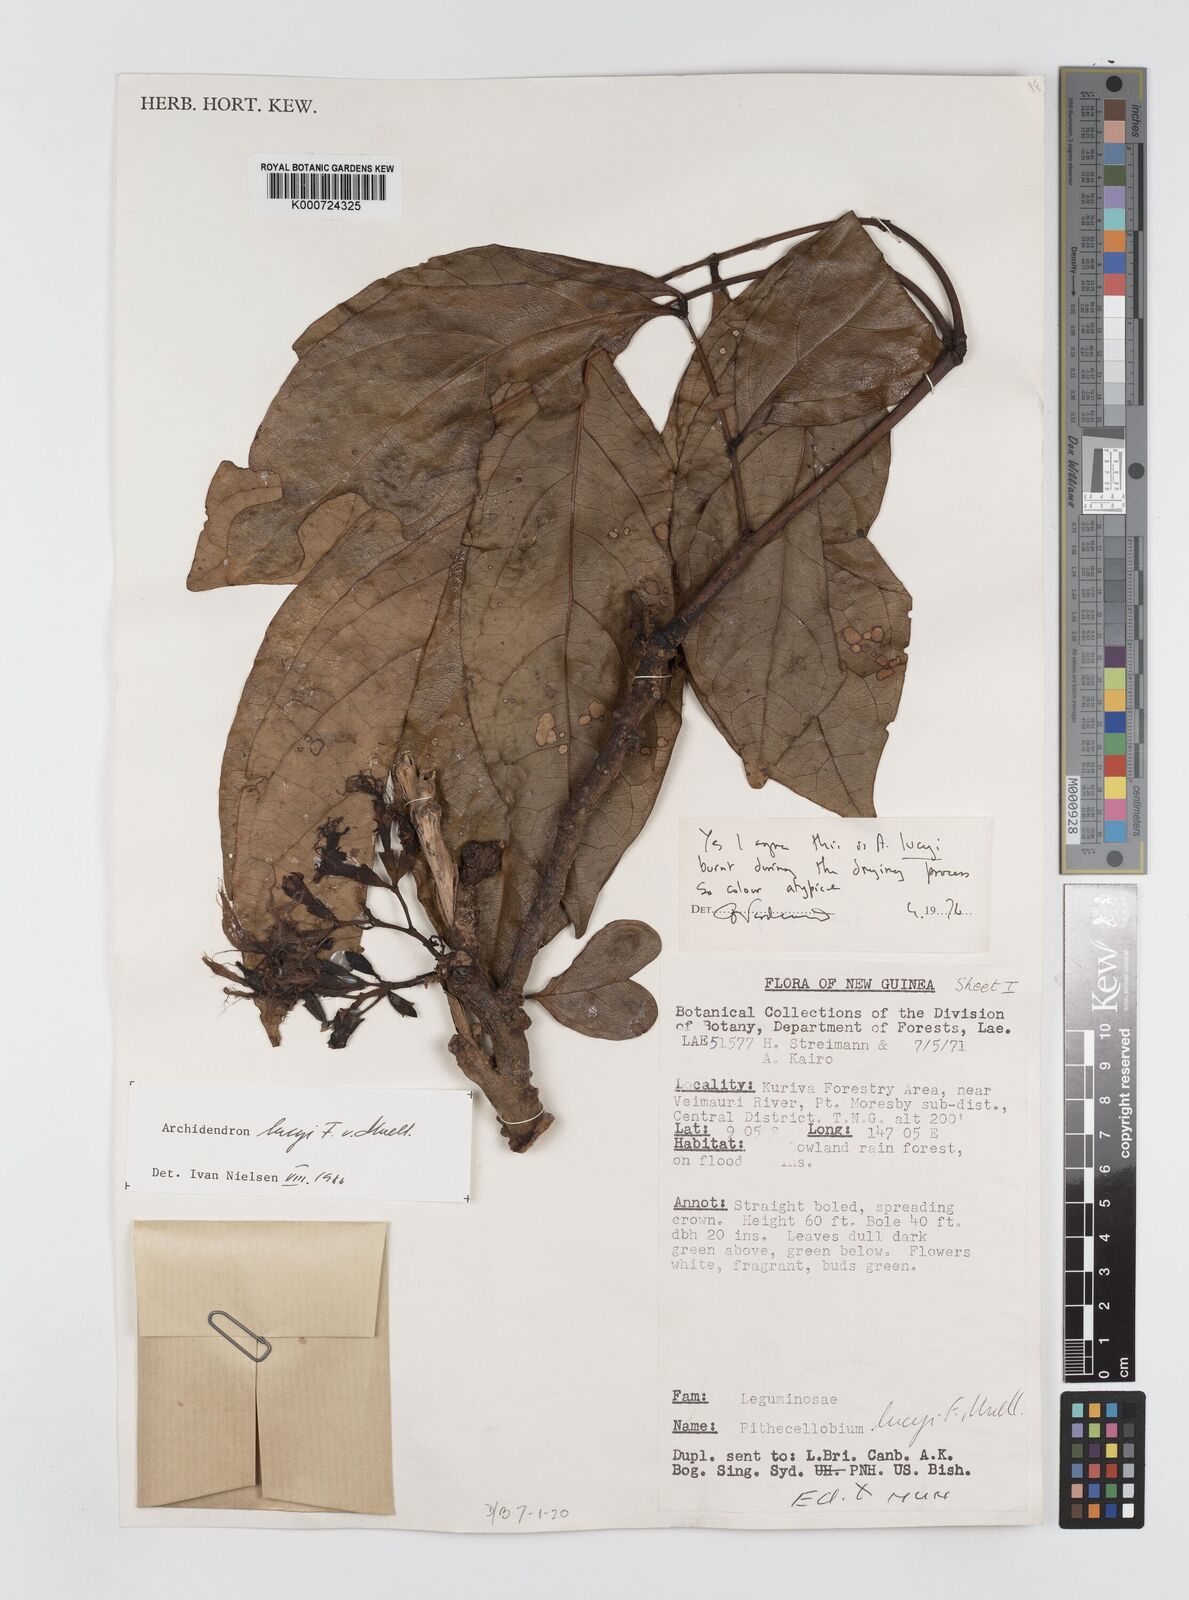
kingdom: Plantae
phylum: Tracheophyta
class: Magnoliopsida
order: Fabales
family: Fabaceae
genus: Archidendron
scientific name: Archidendron lucyi
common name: Scarlet bean
